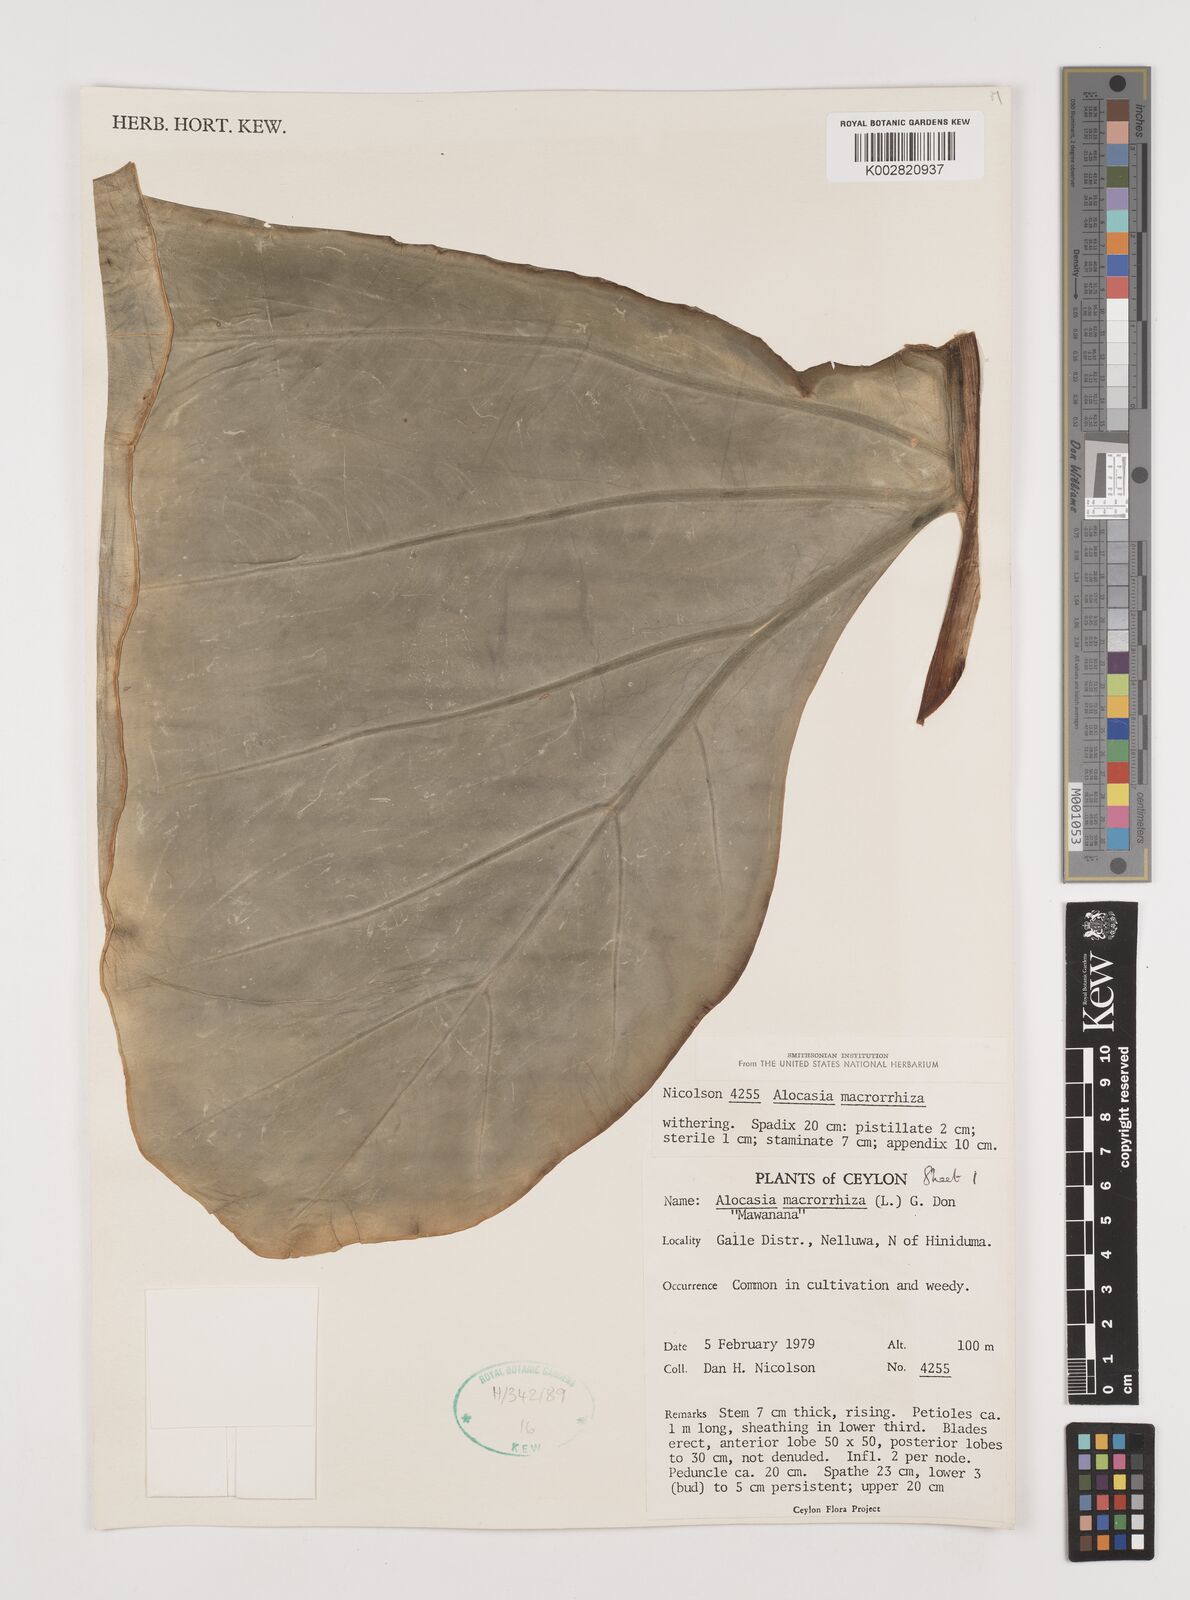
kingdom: Plantae
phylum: Tracheophyta
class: Liliopsida
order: Alismatales
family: Araceae
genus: Alocasia
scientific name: Alocasia macrorrhizos
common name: Giant taro
